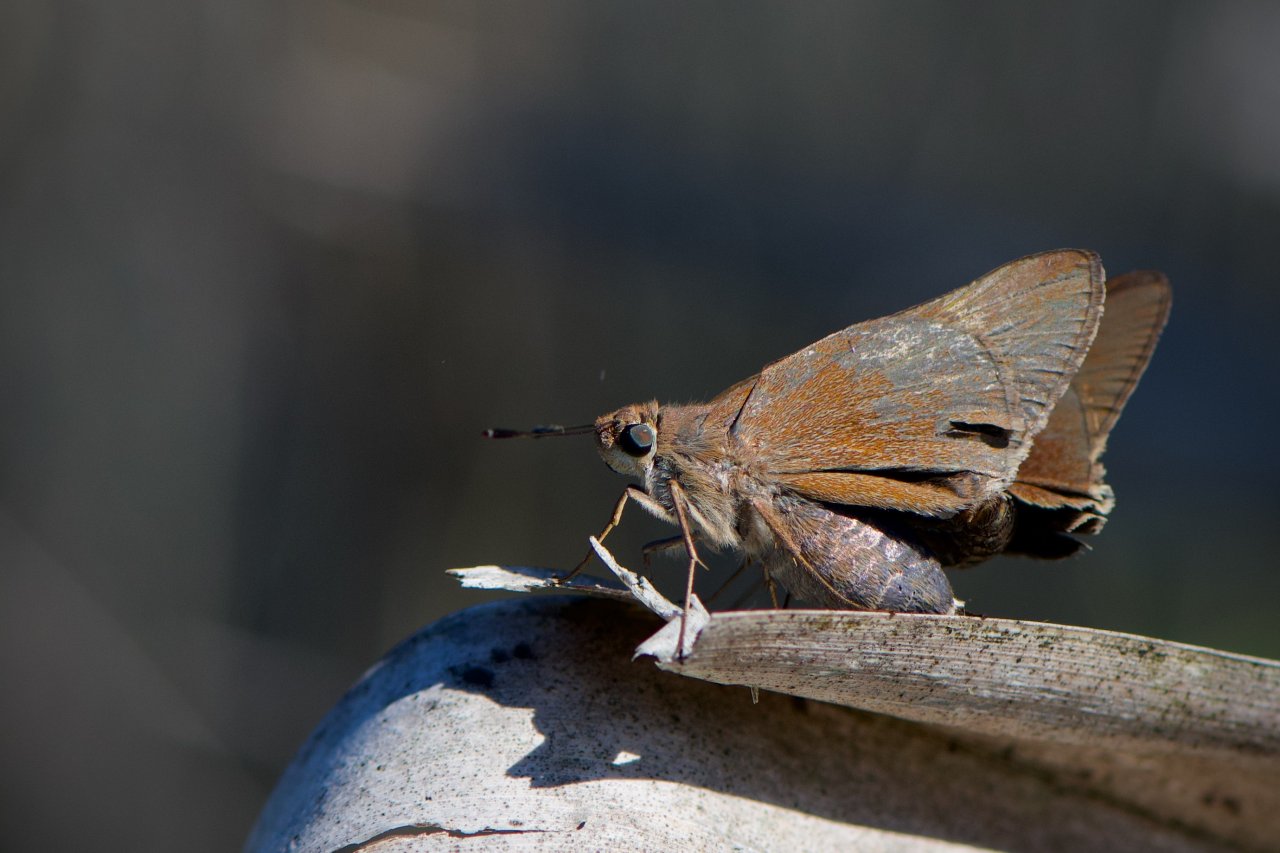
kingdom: Animalia
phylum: Arthropoda
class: Insecta
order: Lepidoptera
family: Hesperiidae
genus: Asbolis
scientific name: Asbolis capucinus
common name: Monk Skipper
